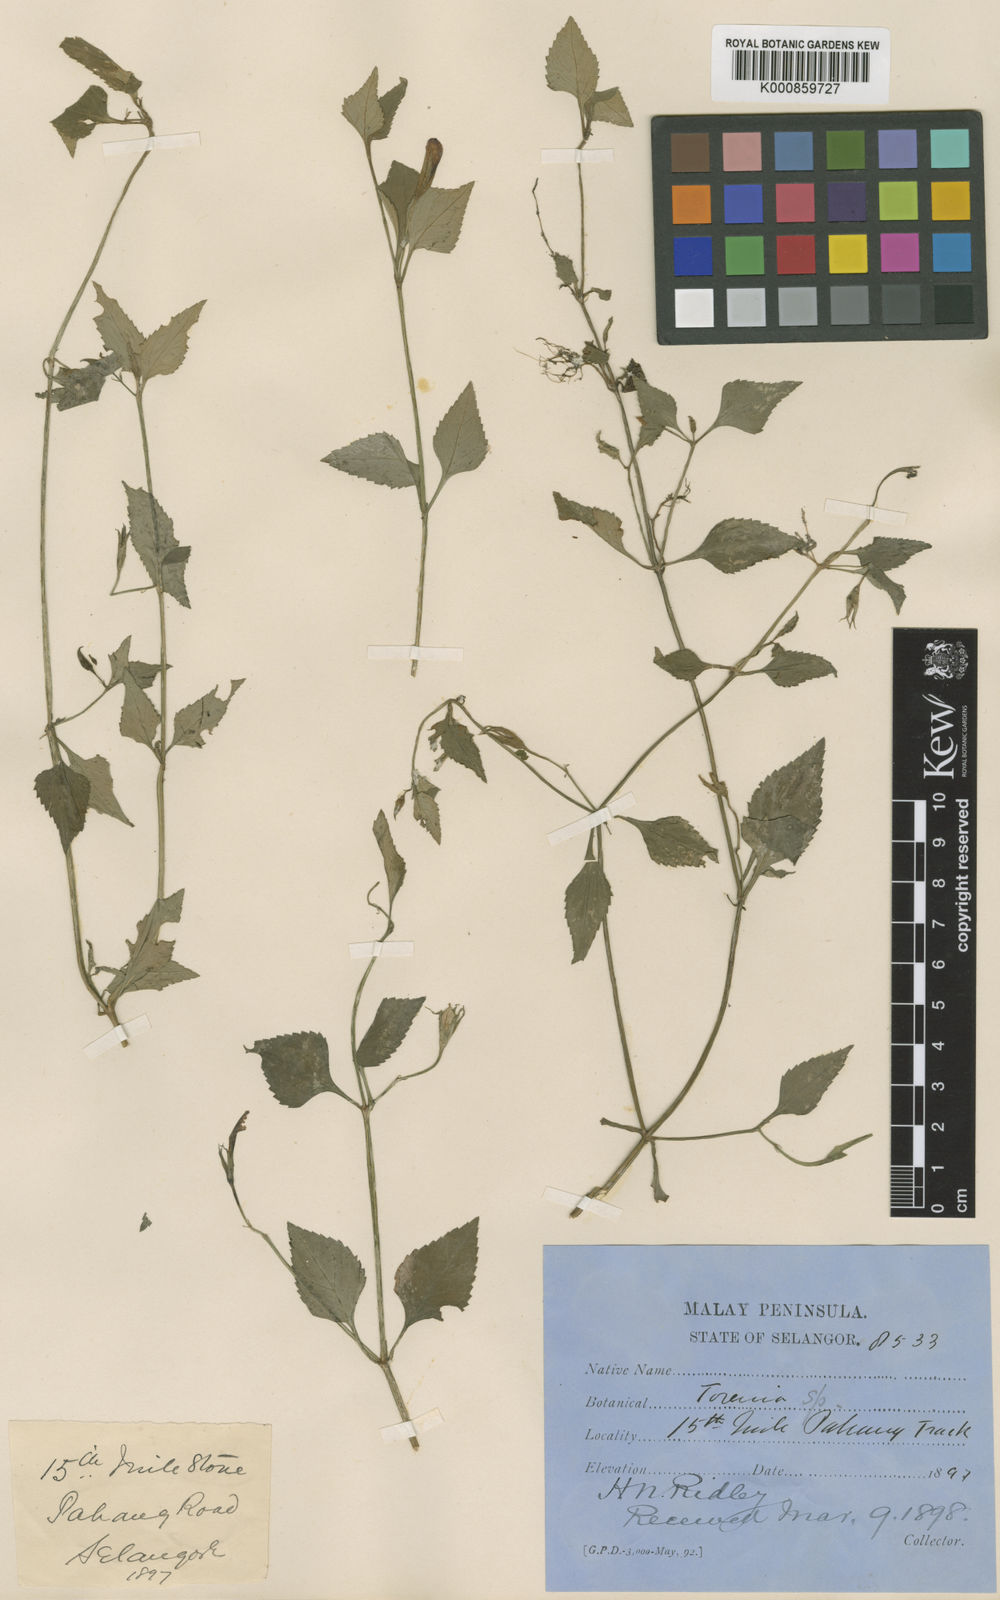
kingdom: Plantae
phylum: Tracheophyta
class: Magnoliopsida
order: Lamiales
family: Linderniaceae
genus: Schizotorenia
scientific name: Schizotorenia atropurpurea
